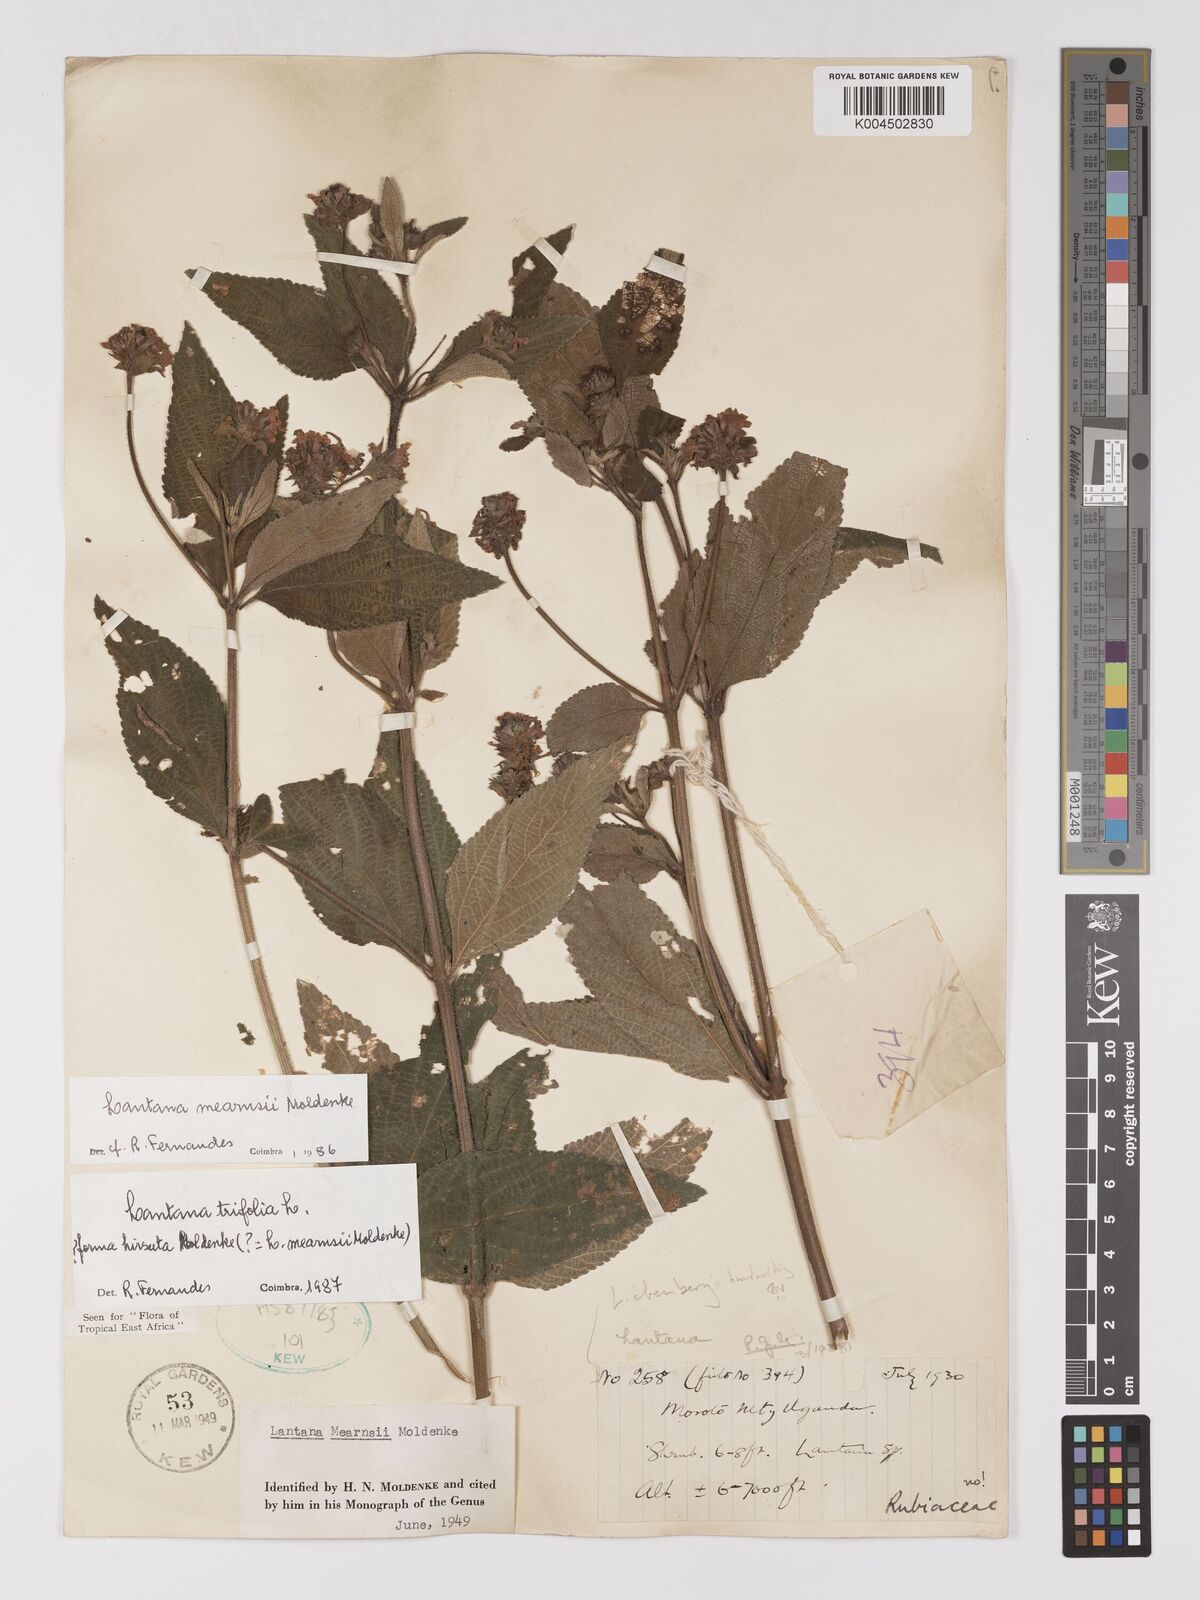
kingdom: Plantae
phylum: Tracheophyta
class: Magnoliopsida
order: Lamiales
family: Verbenaceae
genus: Lantana
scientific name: Lantana trifolia
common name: Sweet-sage
